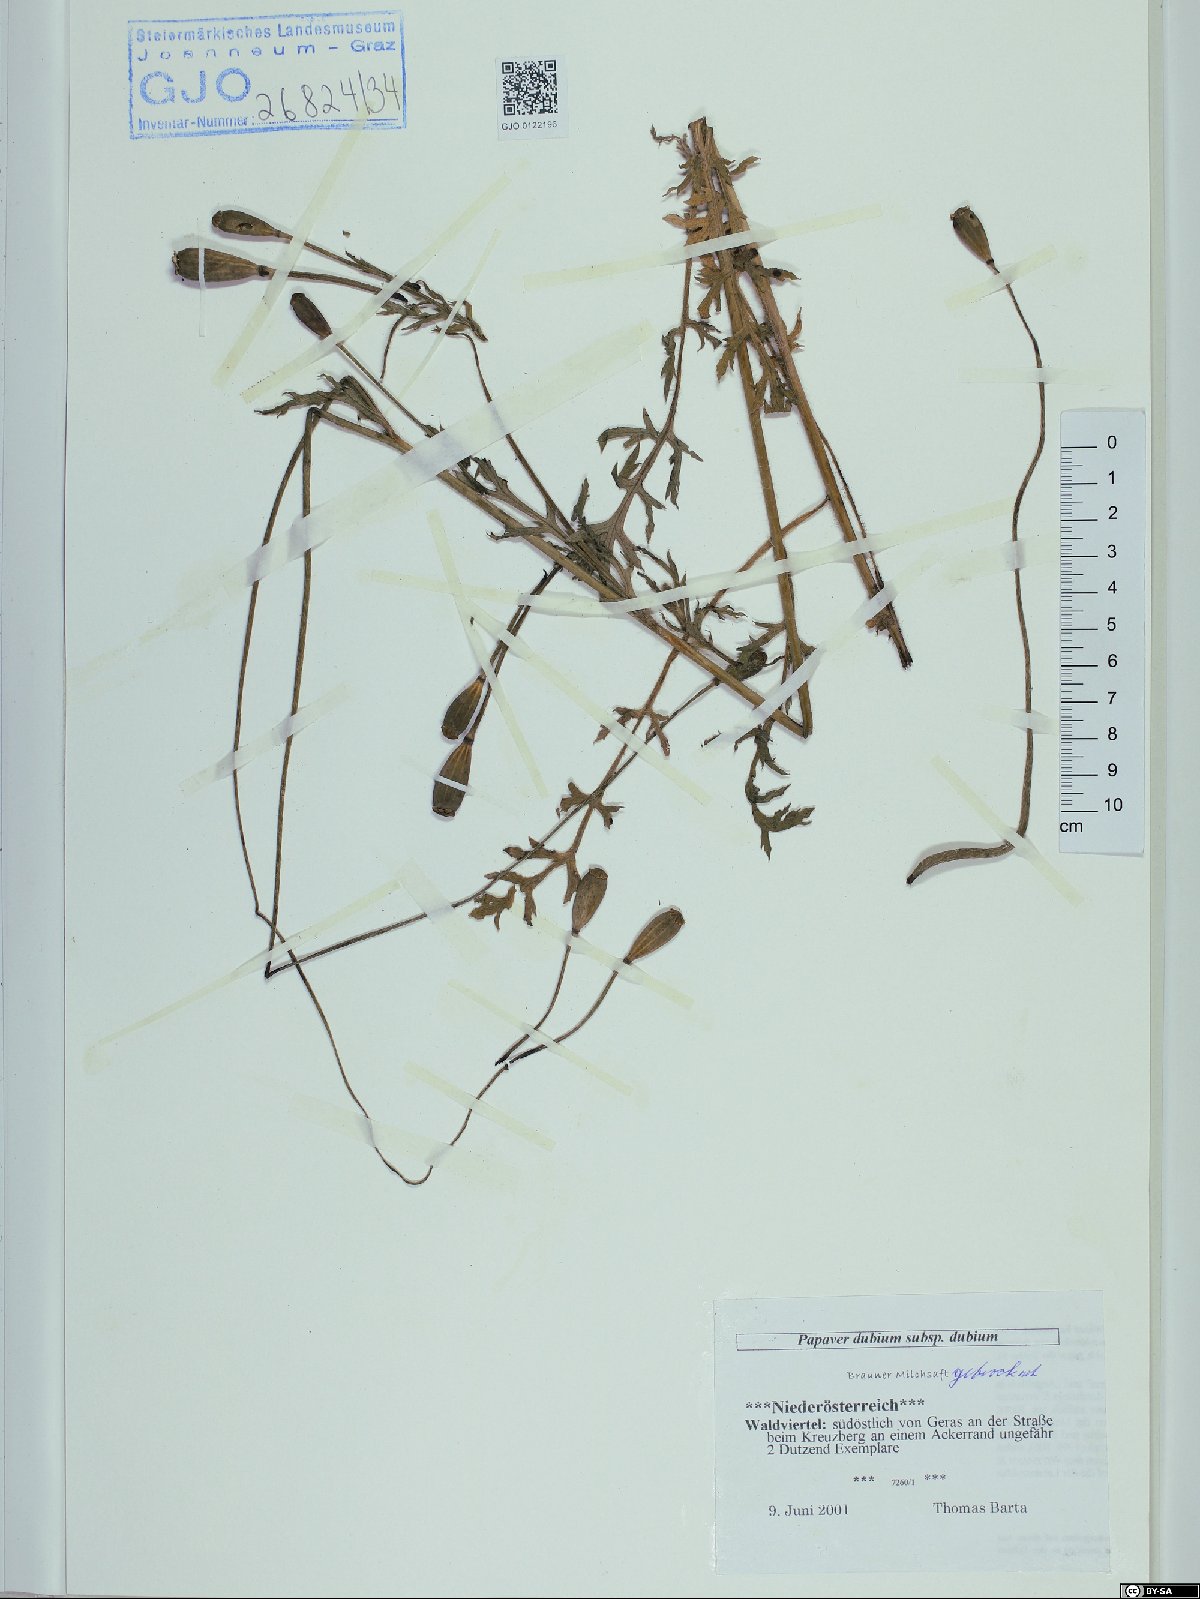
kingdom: Plantae
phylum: Tracheophyta
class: Magnoliopsida
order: Ranunculales
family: Papaveraceae
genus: Papaver
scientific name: Papaver dubium
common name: Long-headed poppy
